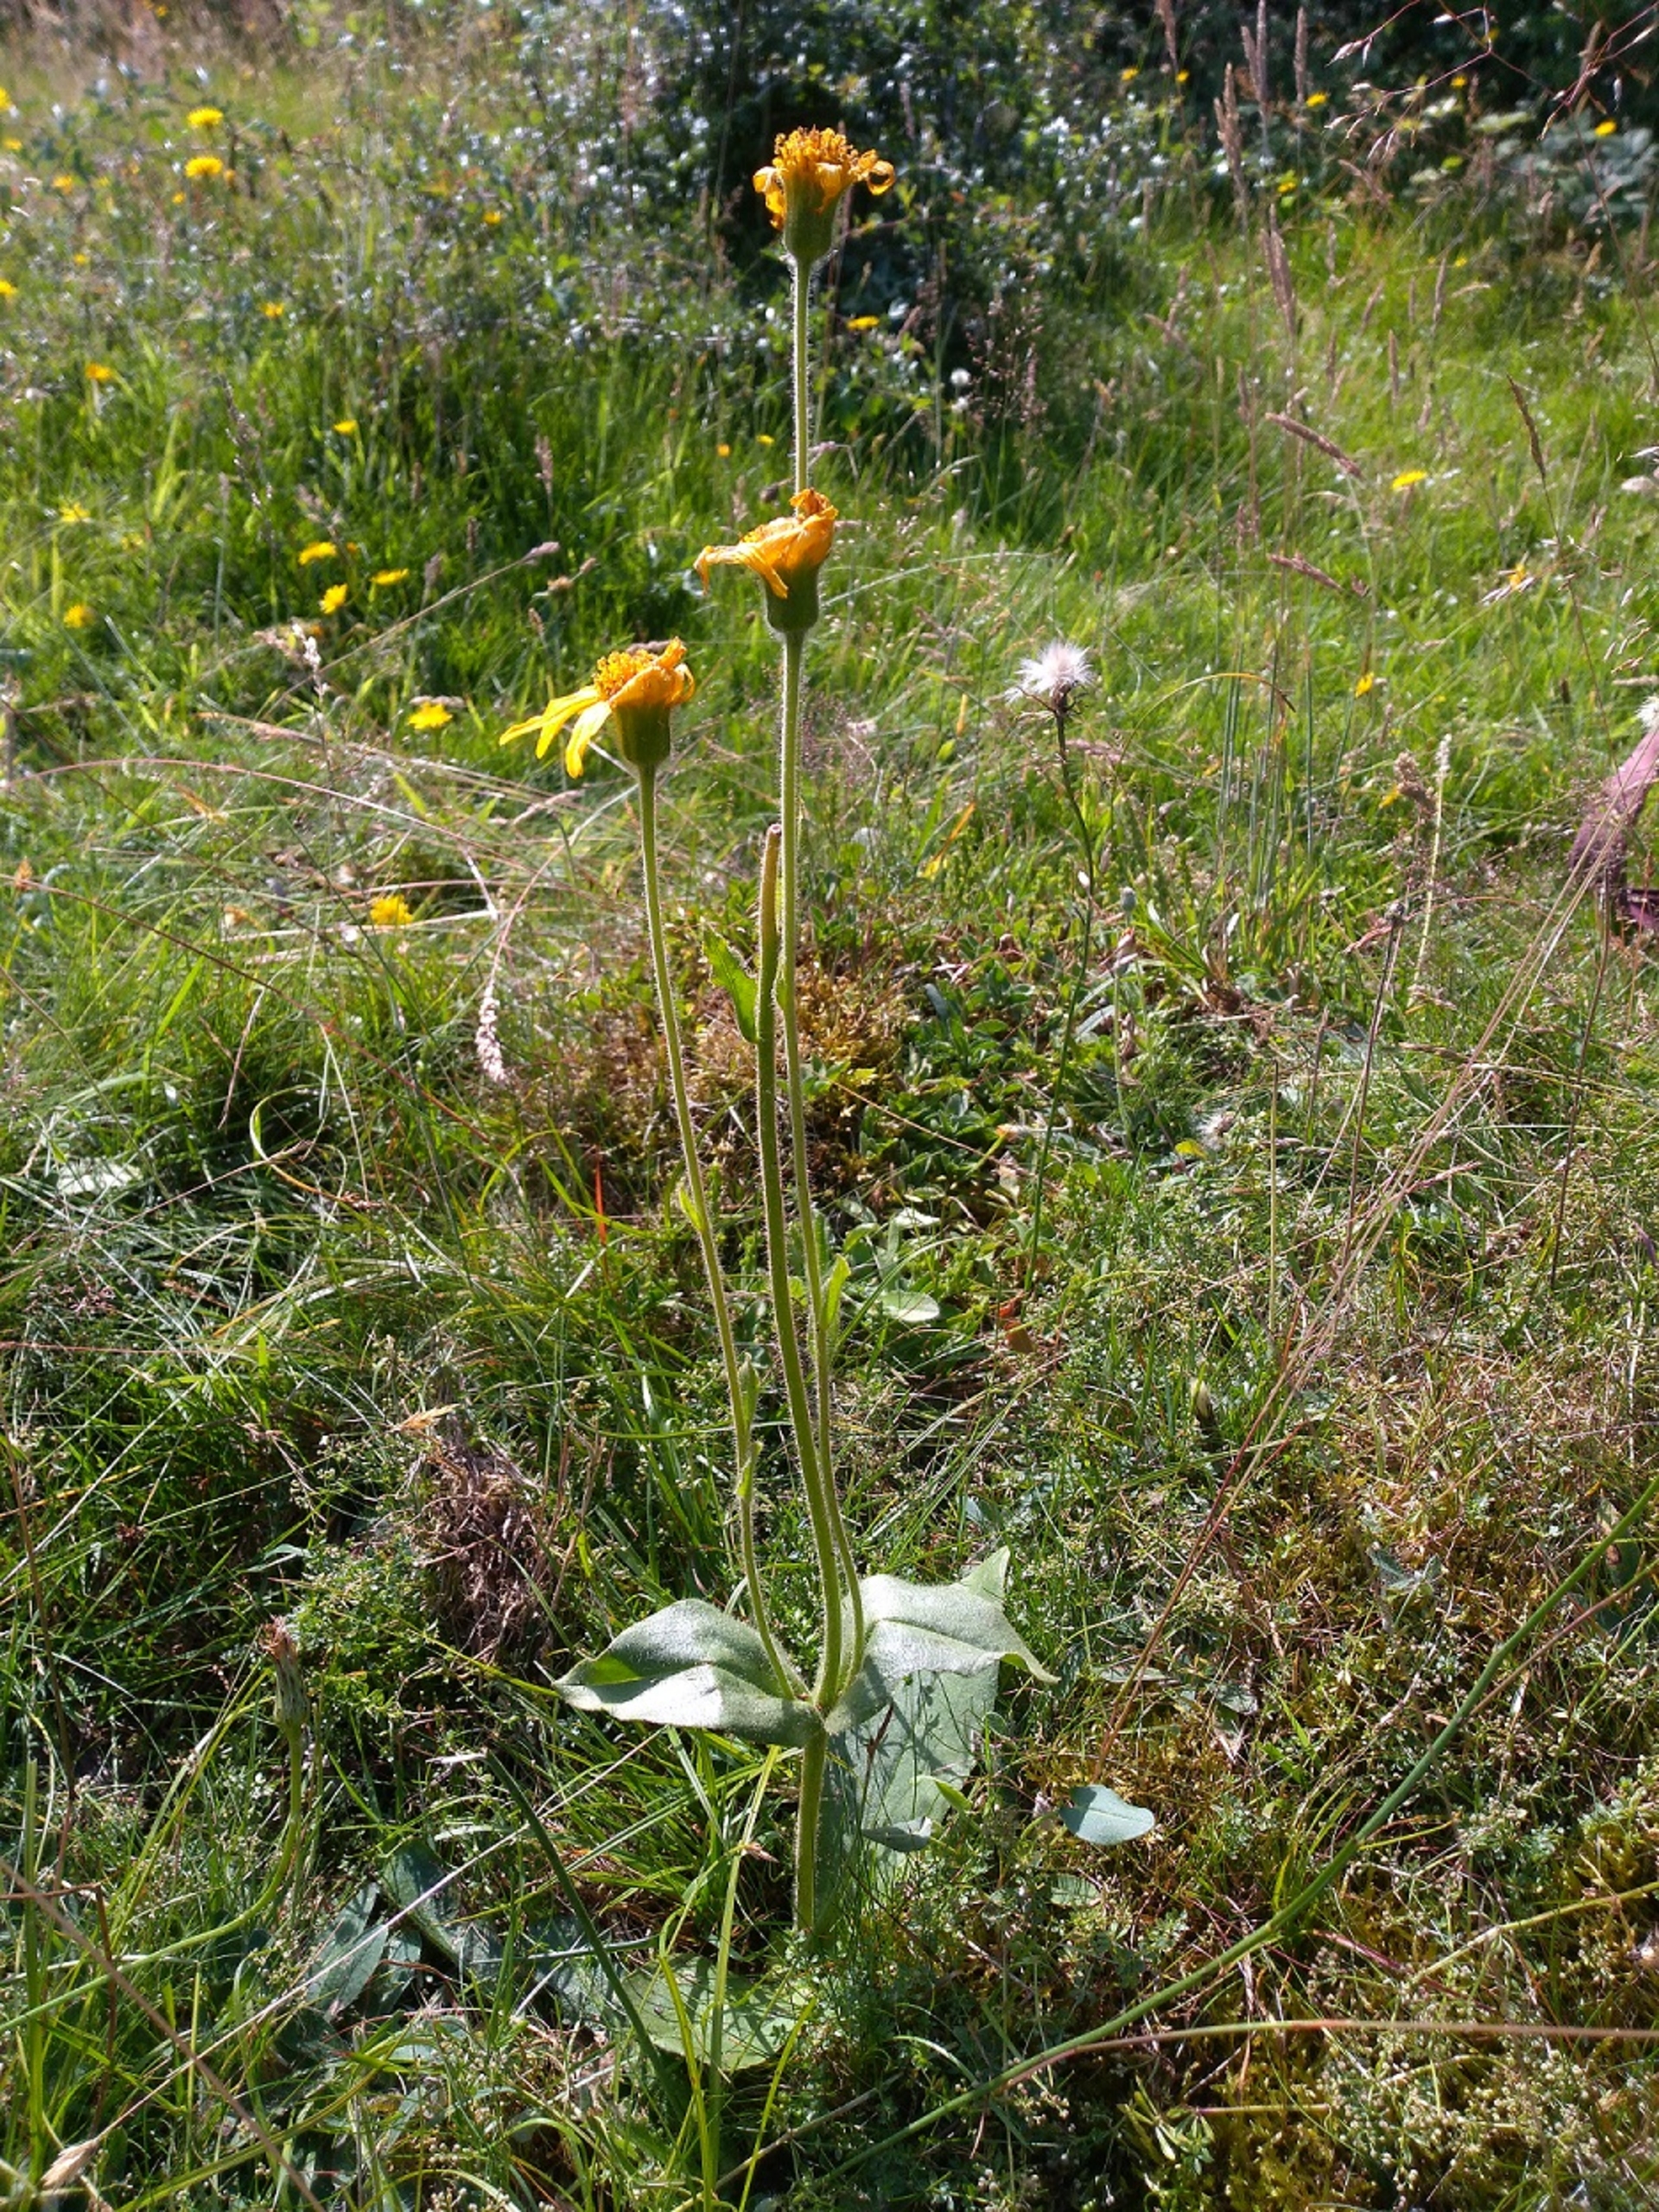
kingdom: Plantae
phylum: Tracheophyta
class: Magnoliopsida
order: Asterales
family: Asteraceae
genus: Arnica
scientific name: Arnica montana
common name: Guldblomme
